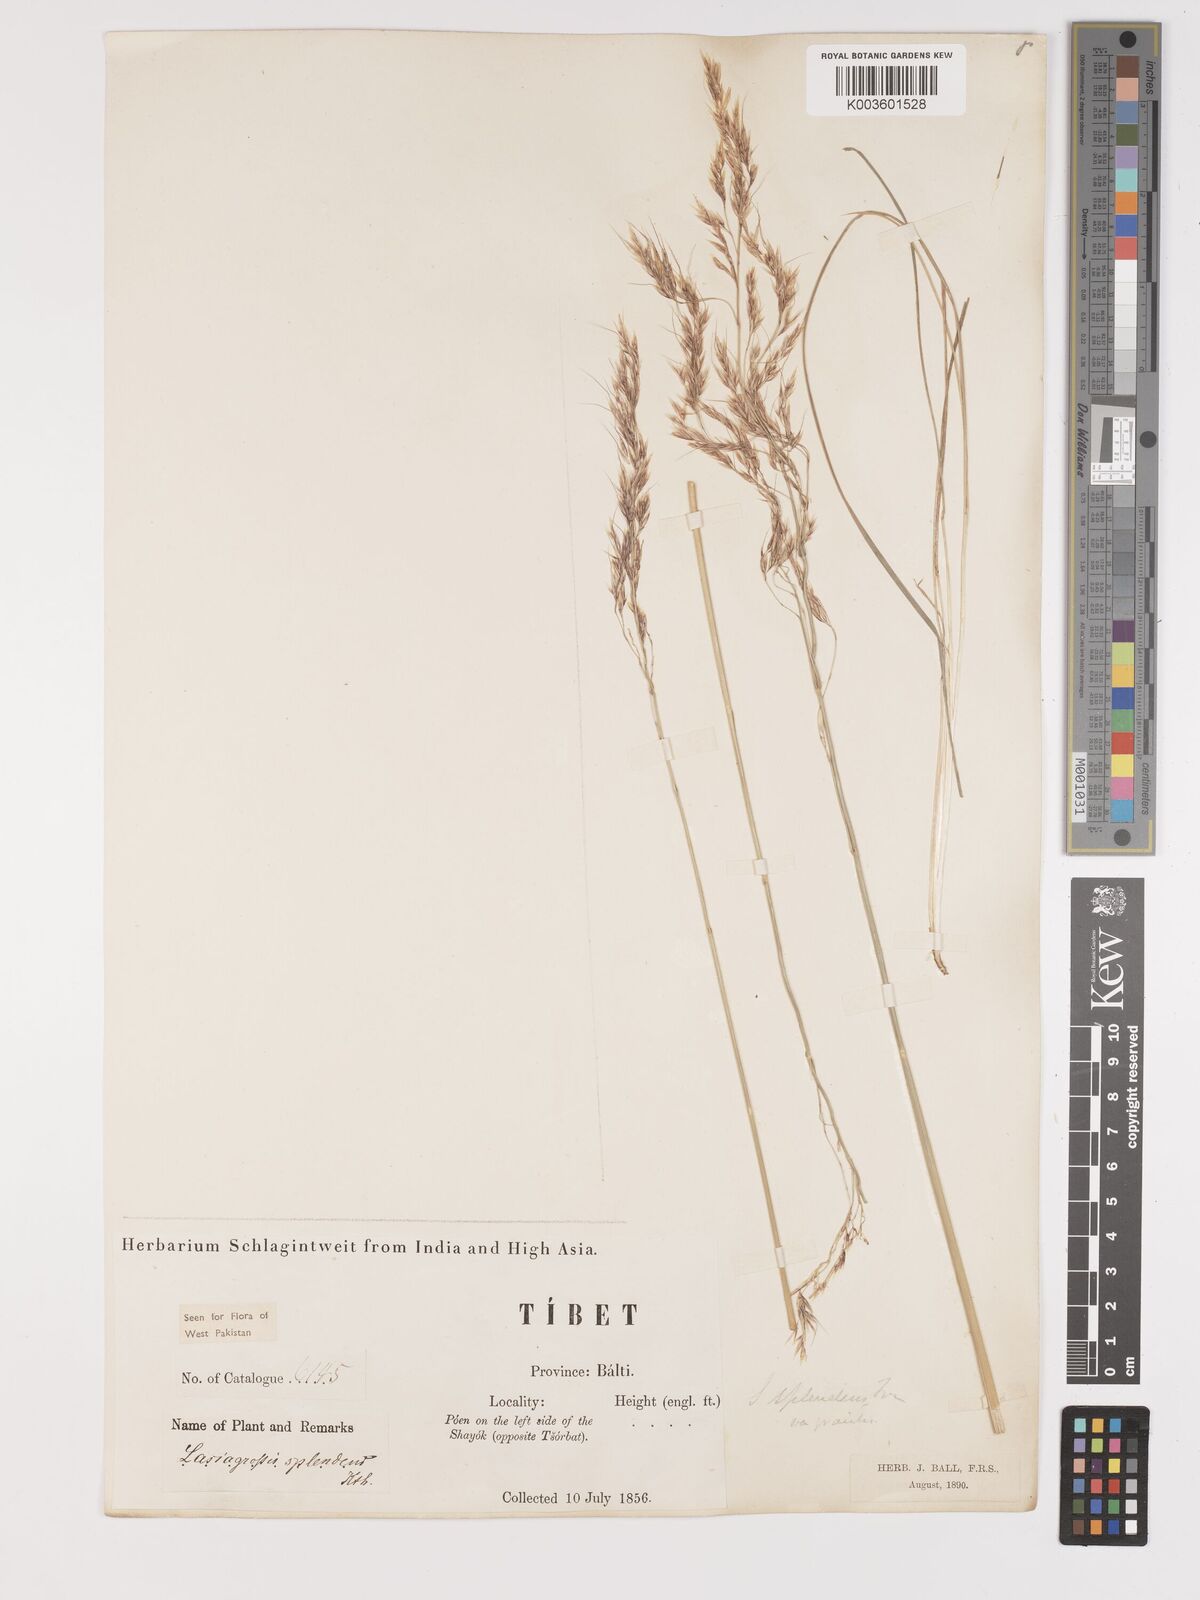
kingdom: Plantae
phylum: Tracheophyta
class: Liliopsida
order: Poales
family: Poaceae
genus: Neotrinia
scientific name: Neotrinia splendens
